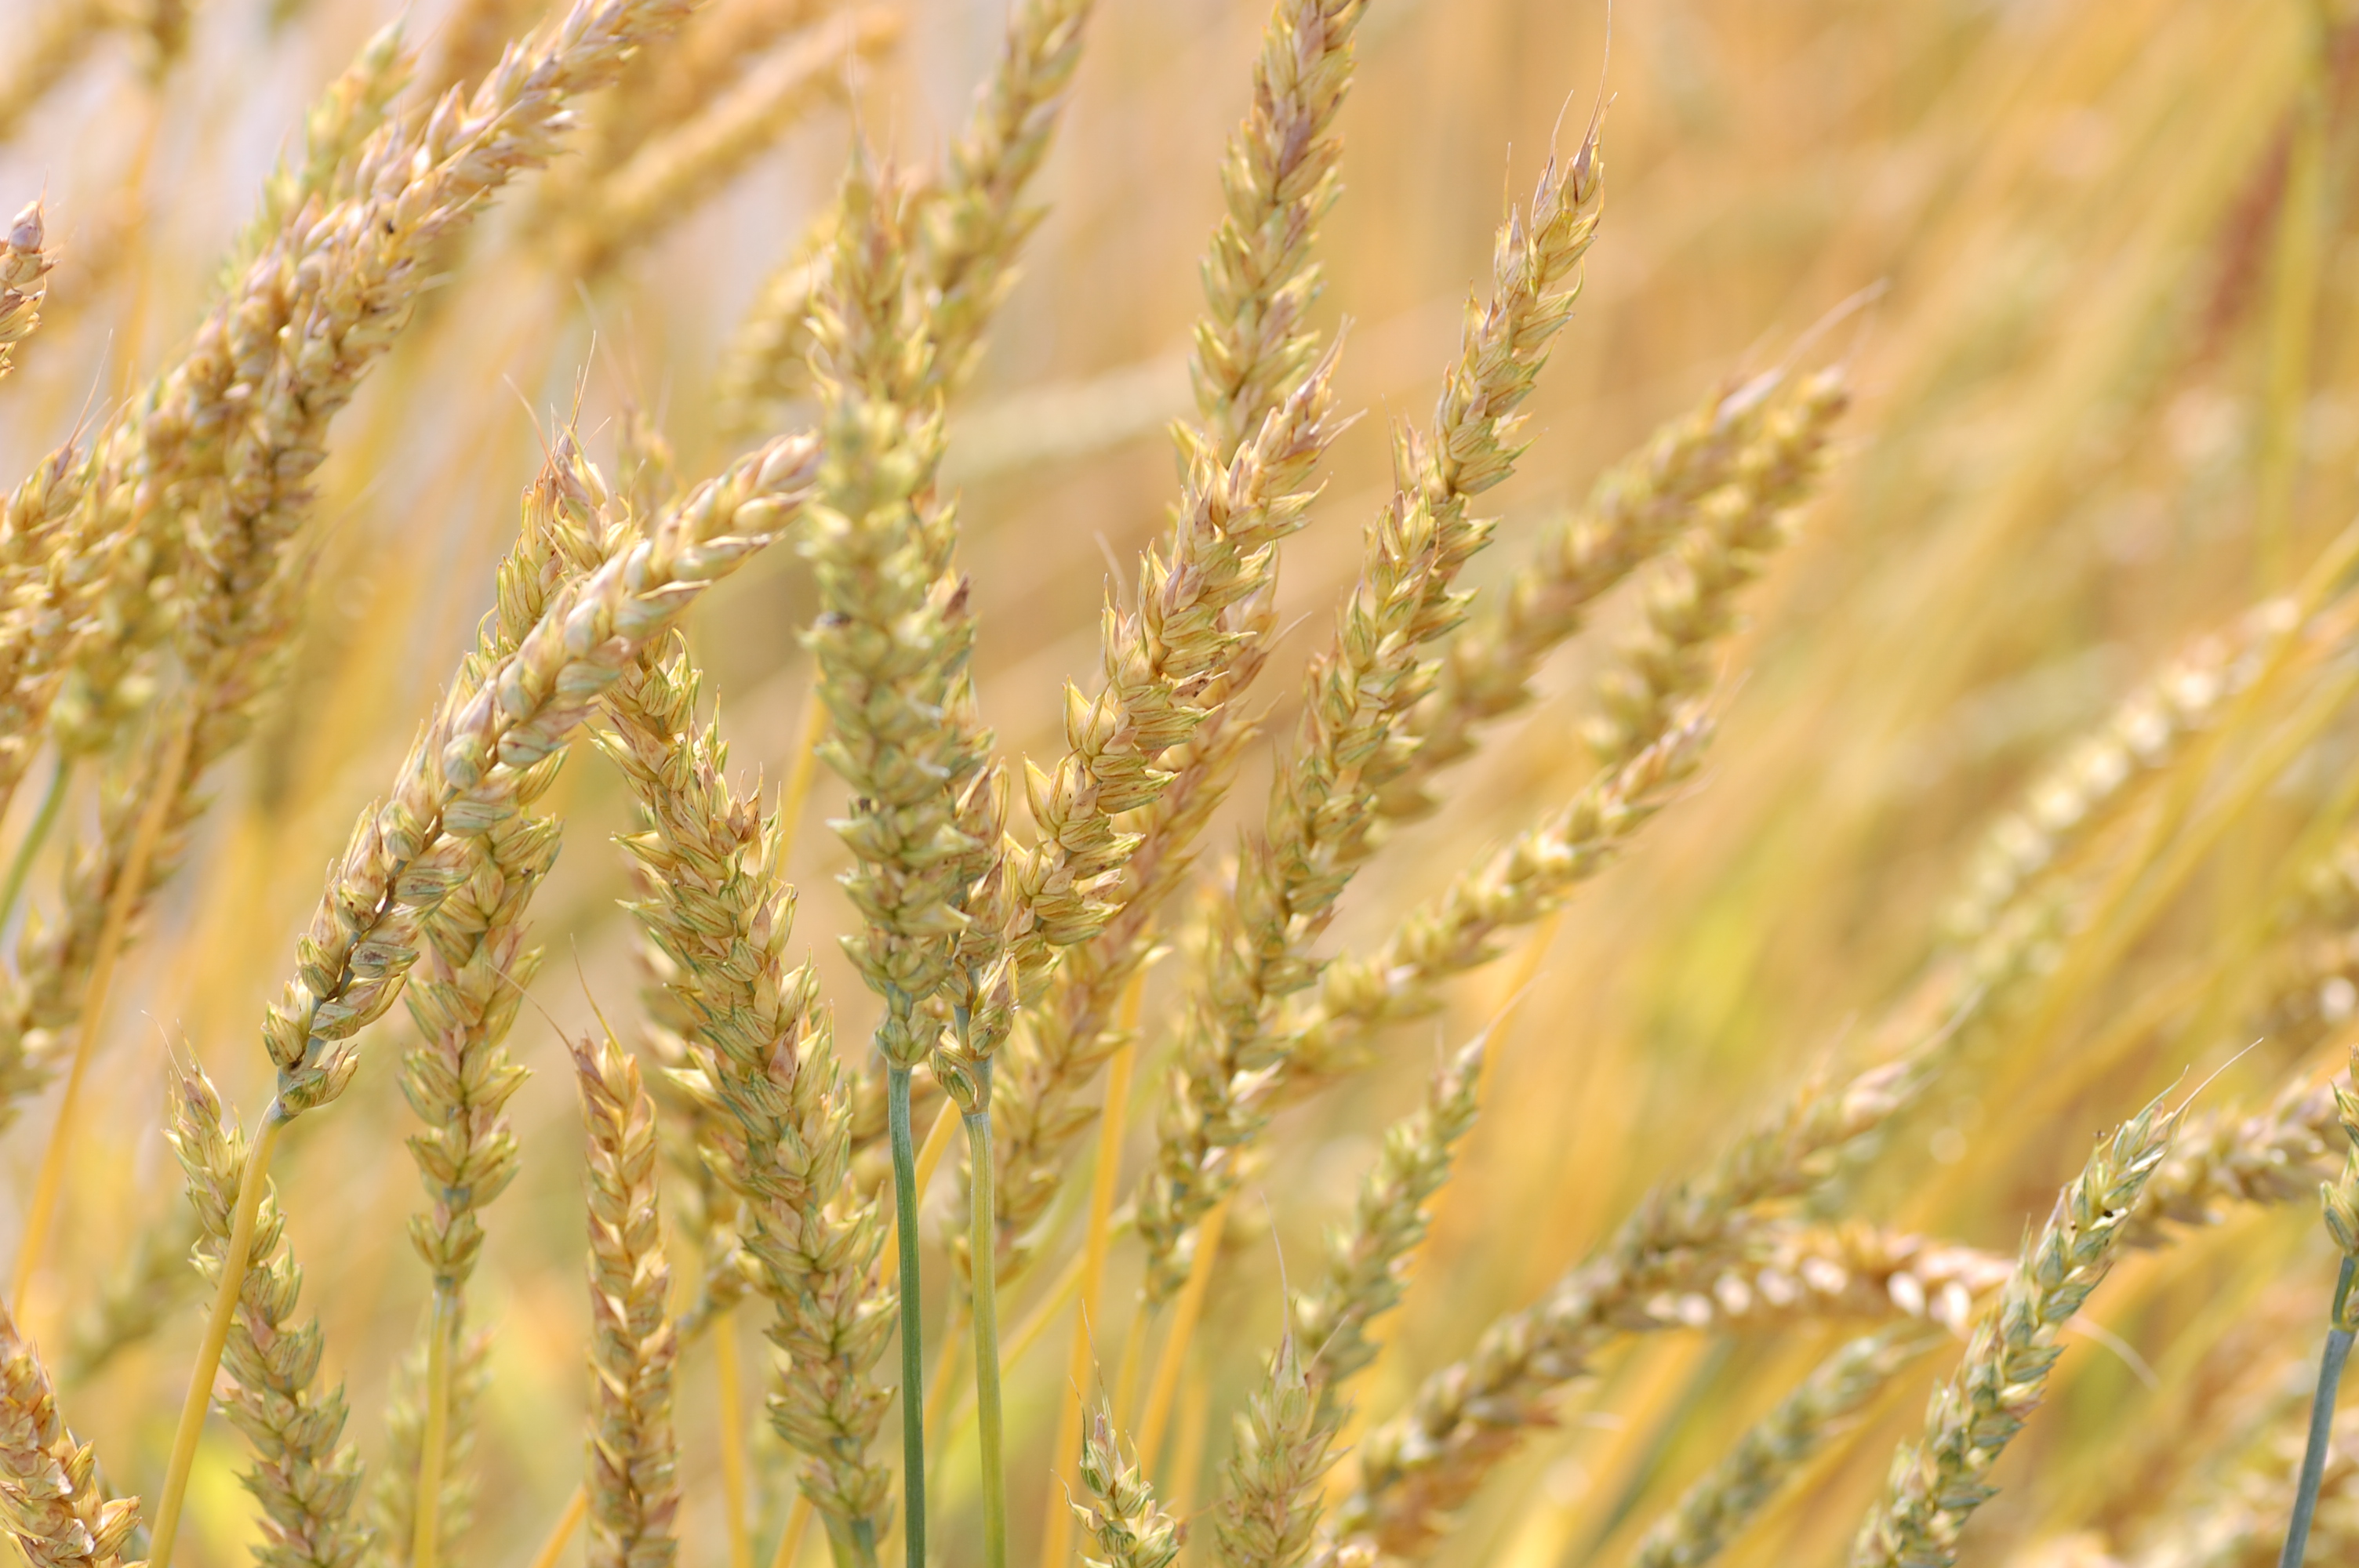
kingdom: Plantae
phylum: Tracheophyta
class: Liliopsida
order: Poales
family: Poaceae
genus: Triticum
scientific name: Triticum aestivum
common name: Common wheat
